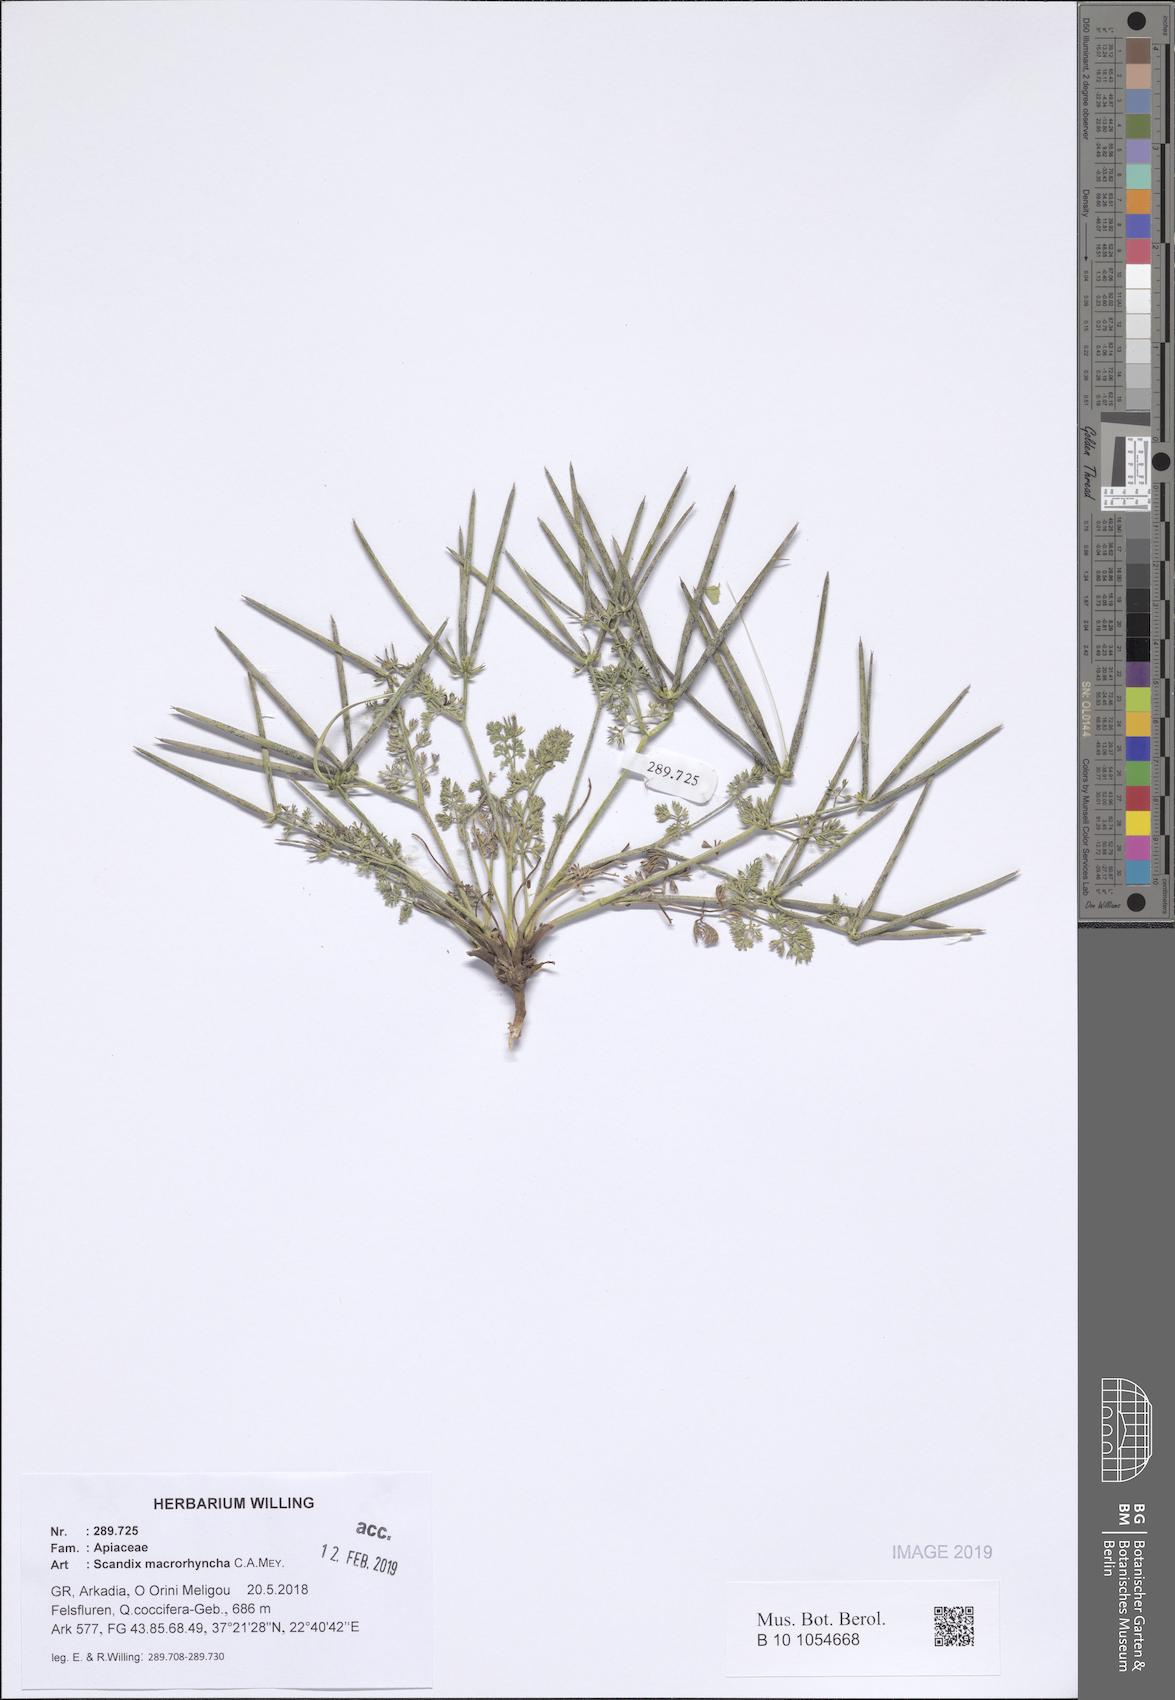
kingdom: Plantae
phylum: Tracheophyta
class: Magnoliopsida
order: Apiales
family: Apiaceae
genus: Scandix
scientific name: Scandix macrorhyncha
